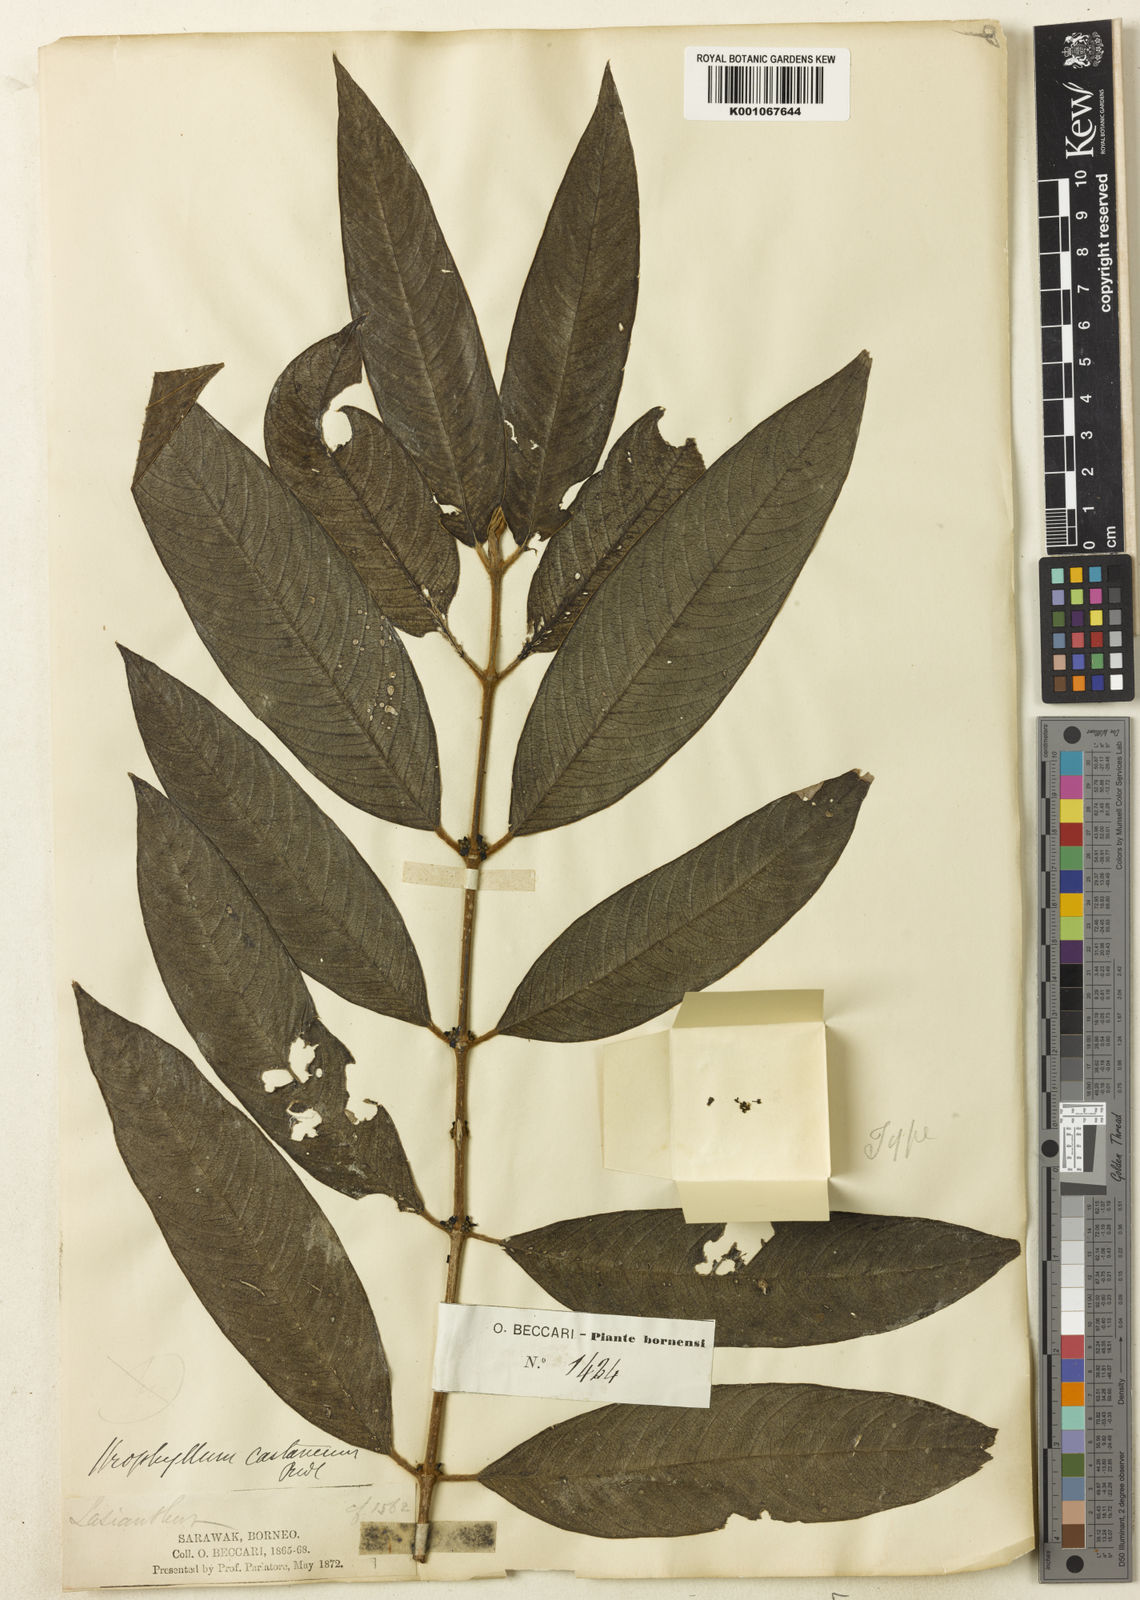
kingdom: Plantae
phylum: Tracheophyta
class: Magnoliopsida
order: Gentianales
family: Rubiaceae
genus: Urophyllum
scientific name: Urophyllum castaneum
